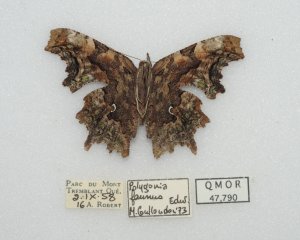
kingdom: Animalia
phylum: Arthropoda
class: Insecta
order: Lepidoptera
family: Nymphalidae
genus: Polygonia
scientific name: Polygonia faunus
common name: Green Comma
